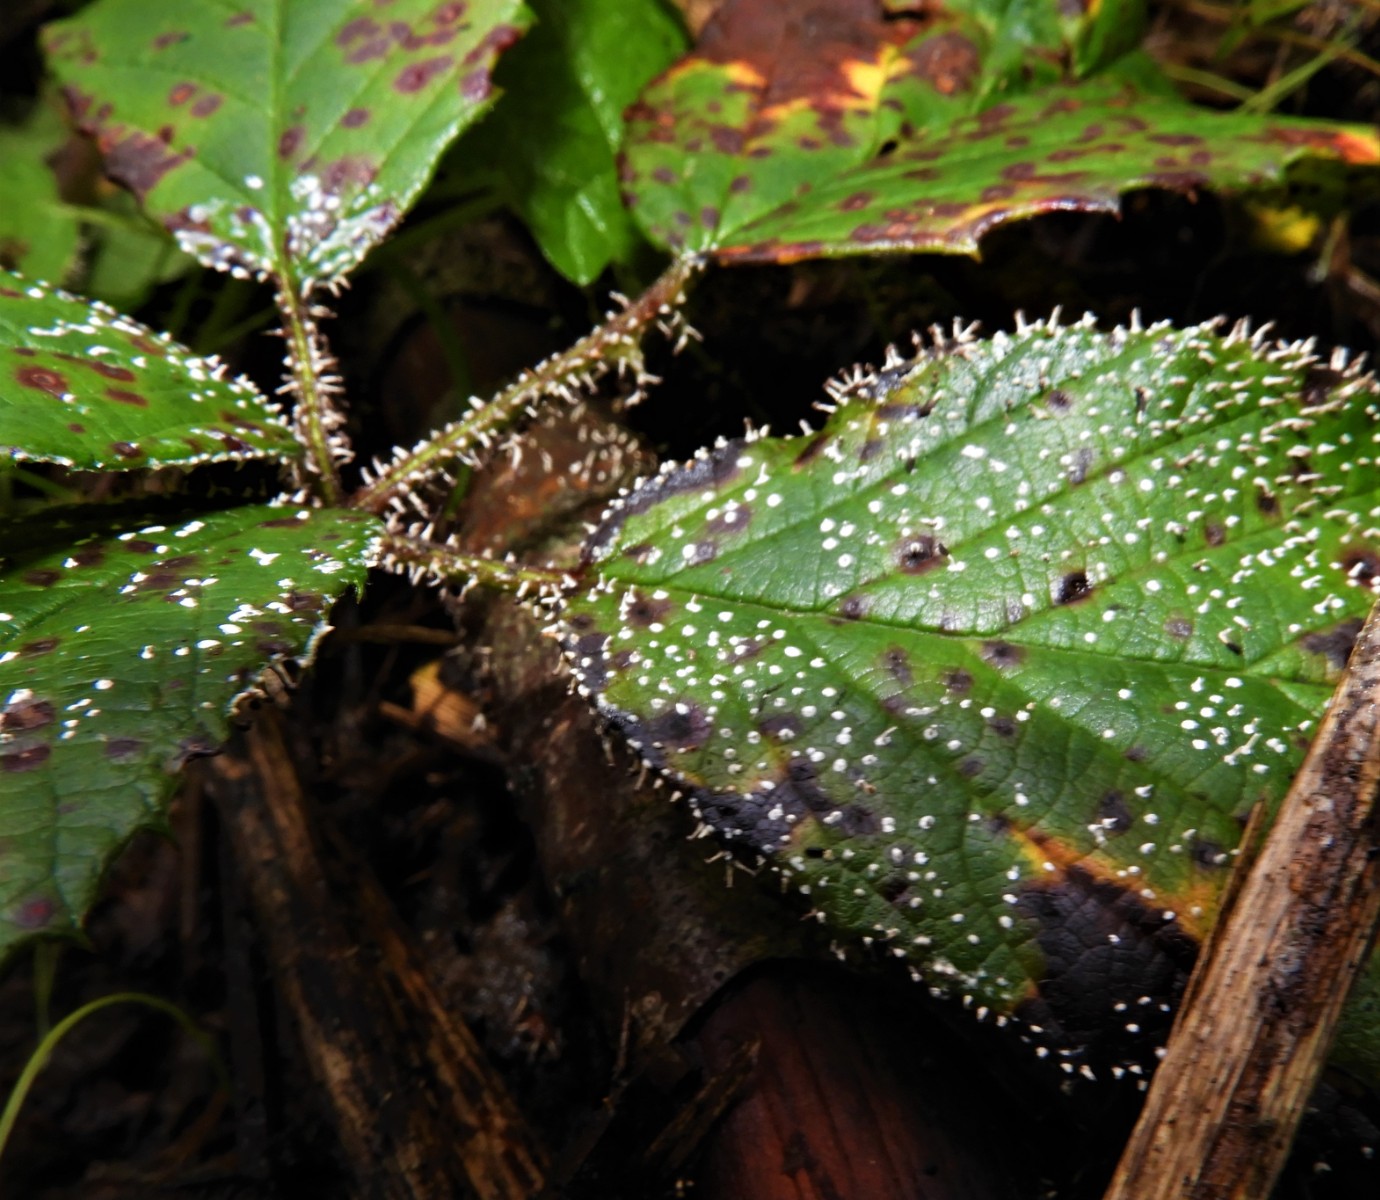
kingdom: Protozoa
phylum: Mycetozoa
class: Myxomycetes
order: Physarales
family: Didymiaceae
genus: Diachea
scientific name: Diachea leucopodia
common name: hvidstokket metalknop
